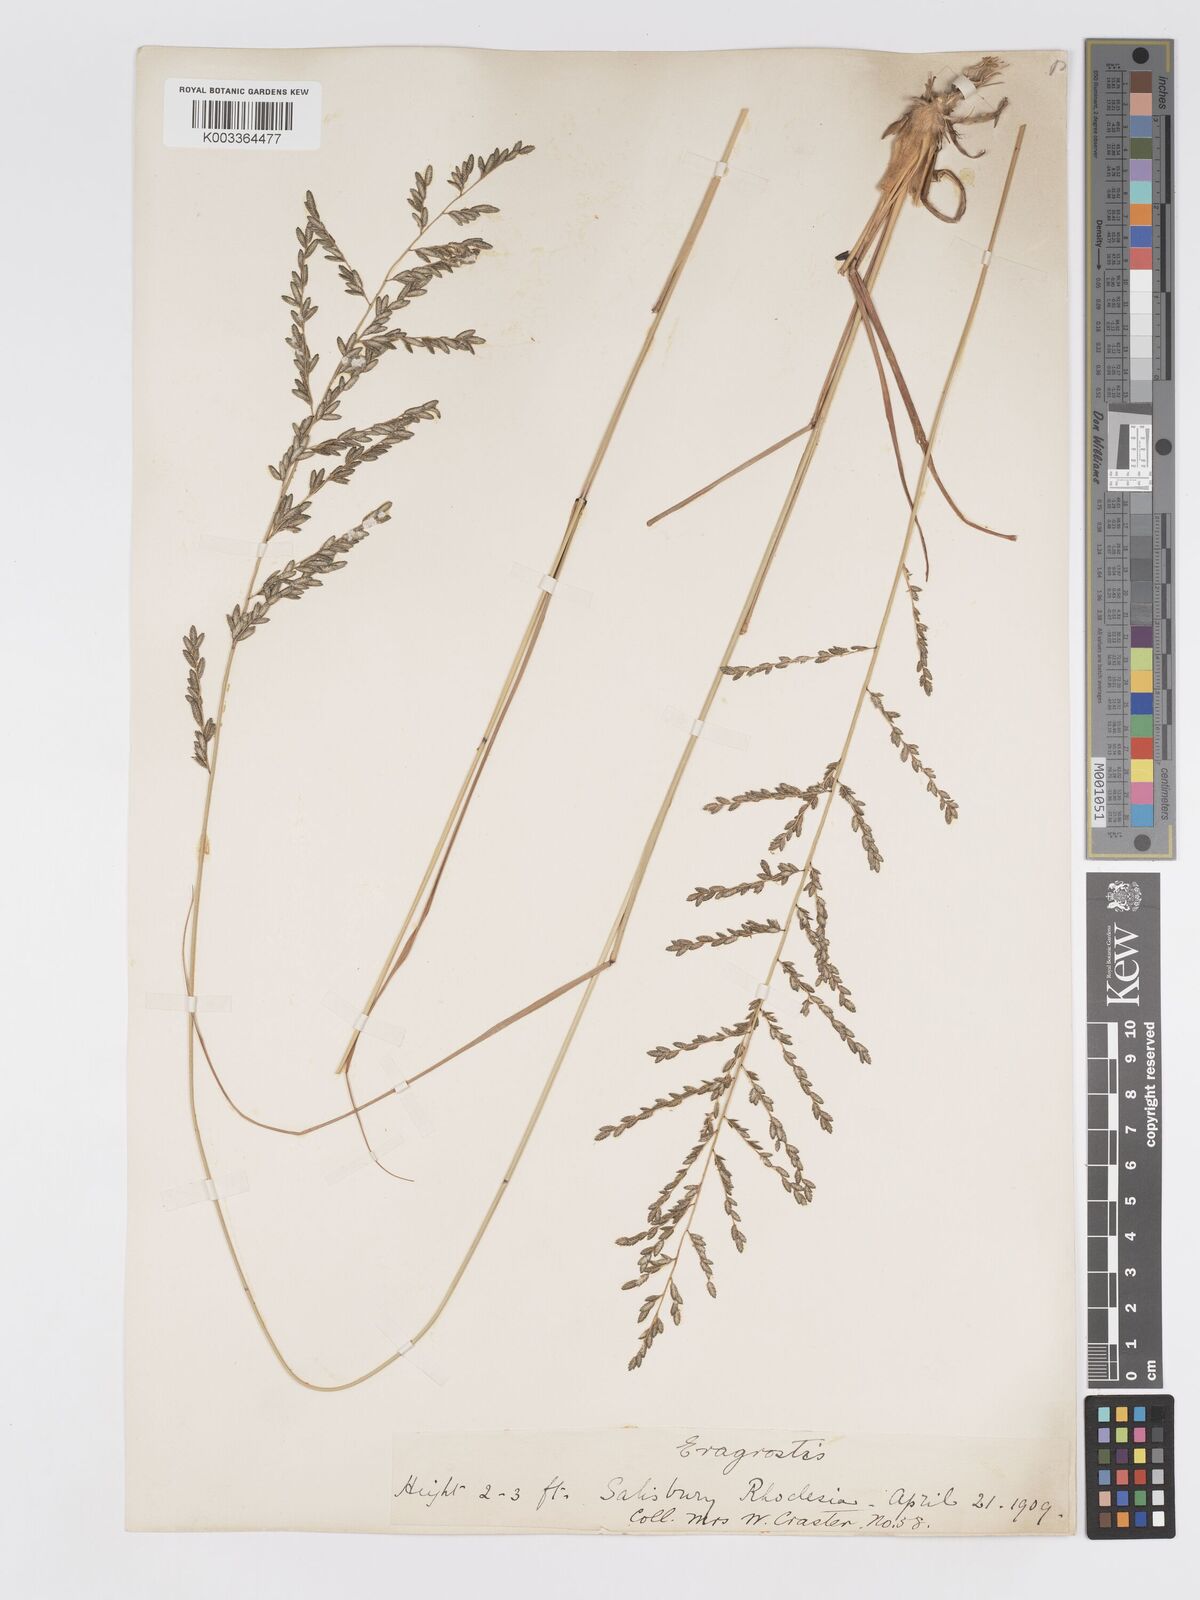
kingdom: Plantae
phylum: Tracheophyta
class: Liliopsida
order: Poales
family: Poaceae
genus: Eragrostis
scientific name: Eragrostis sclerantha
